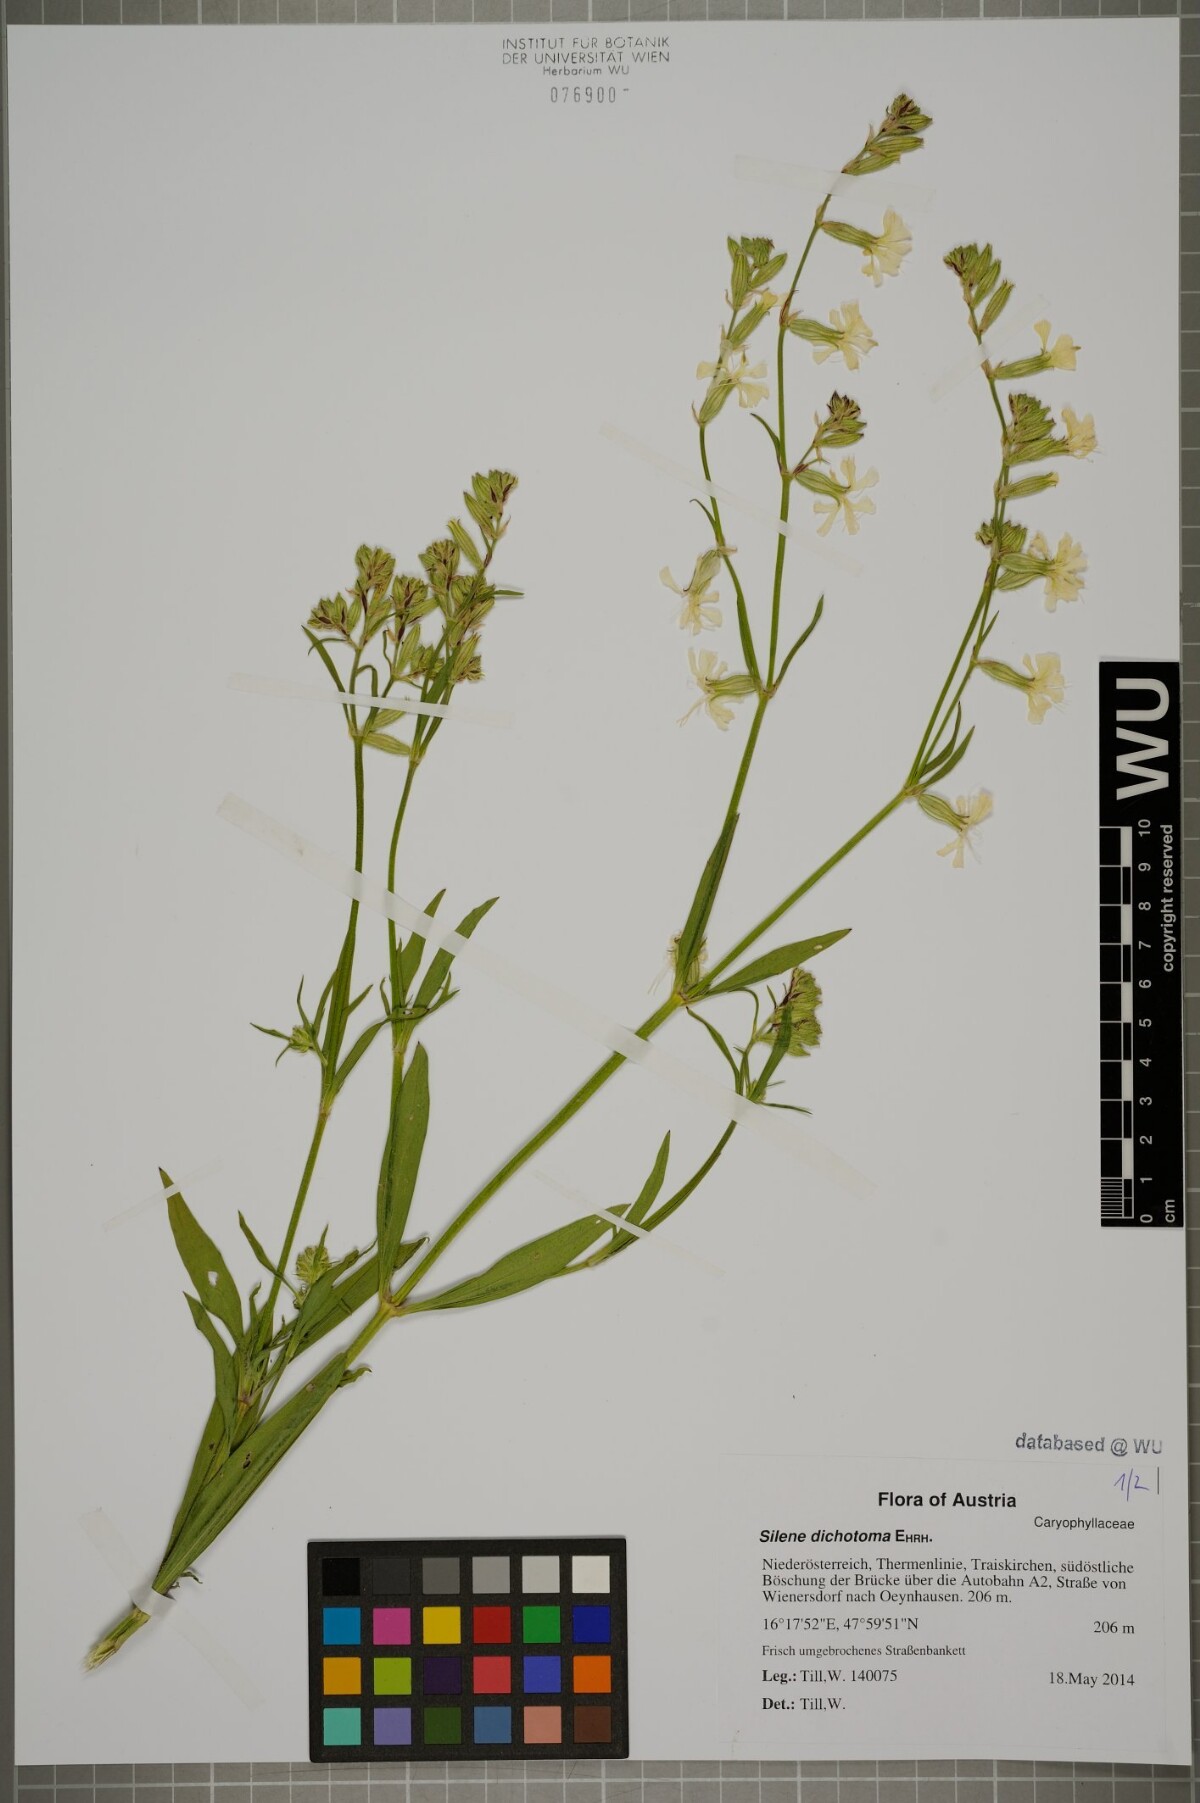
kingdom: Plantae
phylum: Tracheophyta
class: Magnoliopsida
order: Caryophyllales
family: Caryophyllaceae
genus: Silene
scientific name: Silene dichotoma
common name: Forked catchfly
